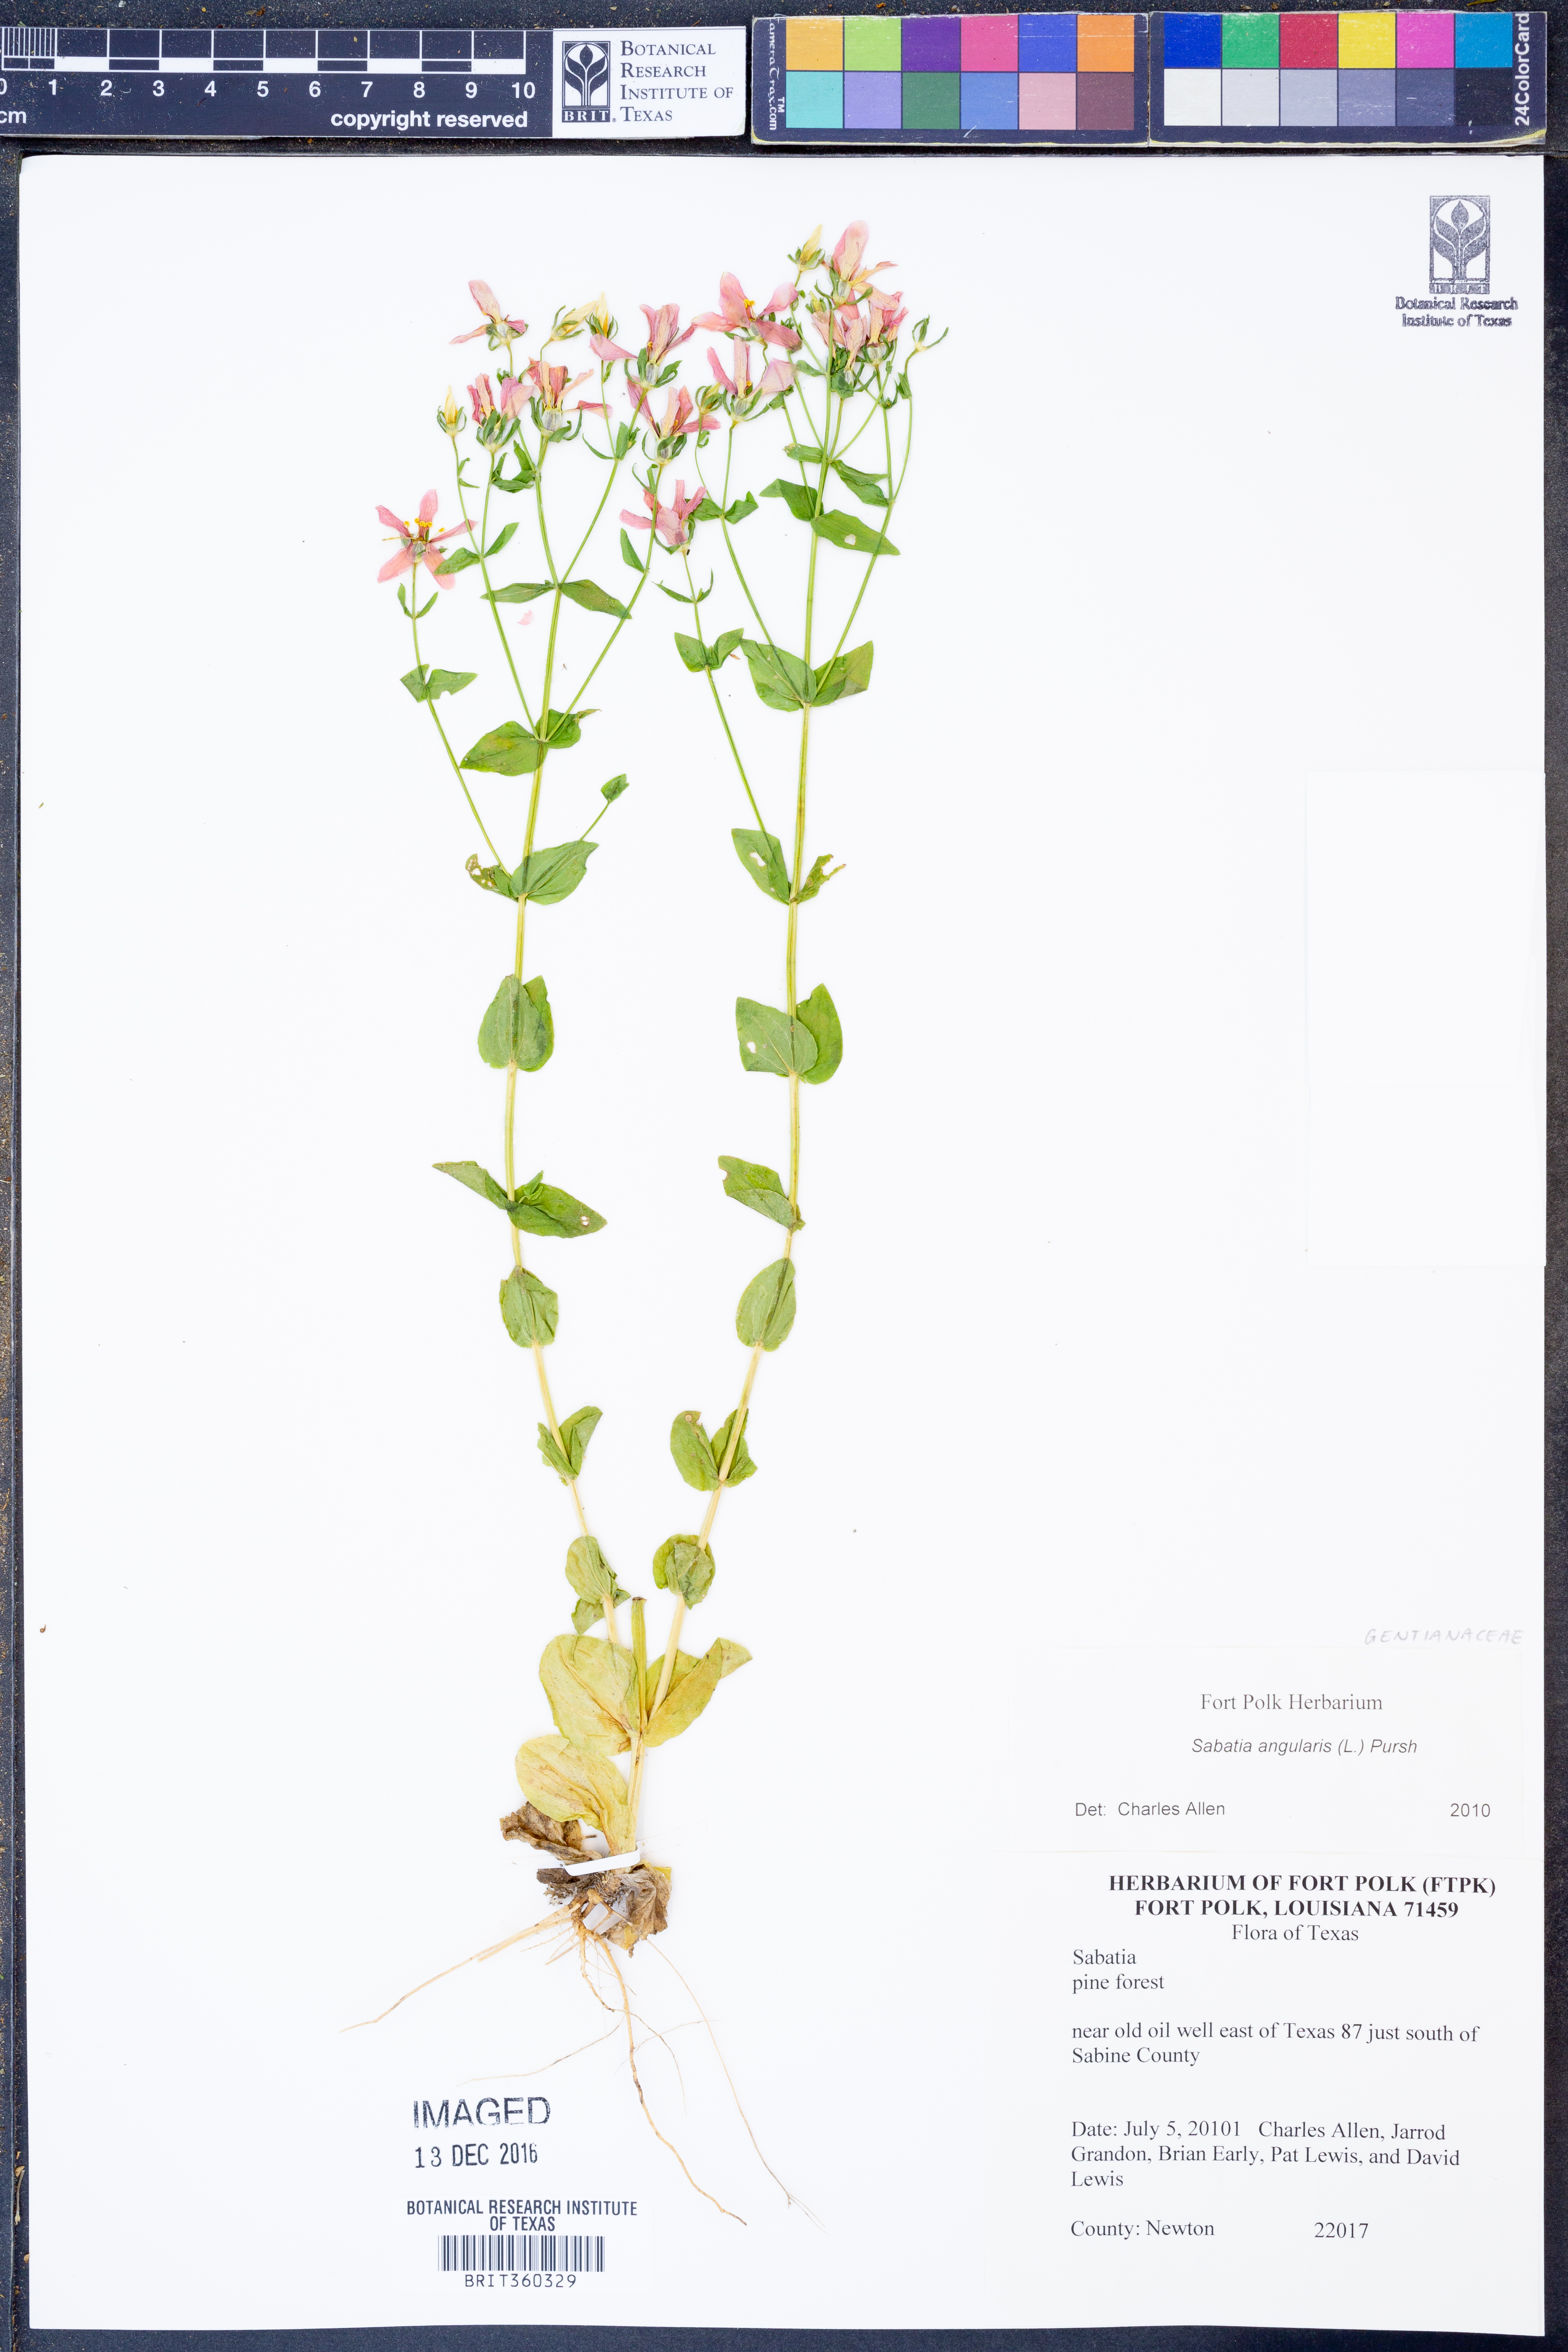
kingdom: Plantae
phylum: Tracheophyta
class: Magnoliopsida
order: Gentianales
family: Gentianaceae
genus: Sabatia
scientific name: Sabatia angularis
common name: Rose-pink
